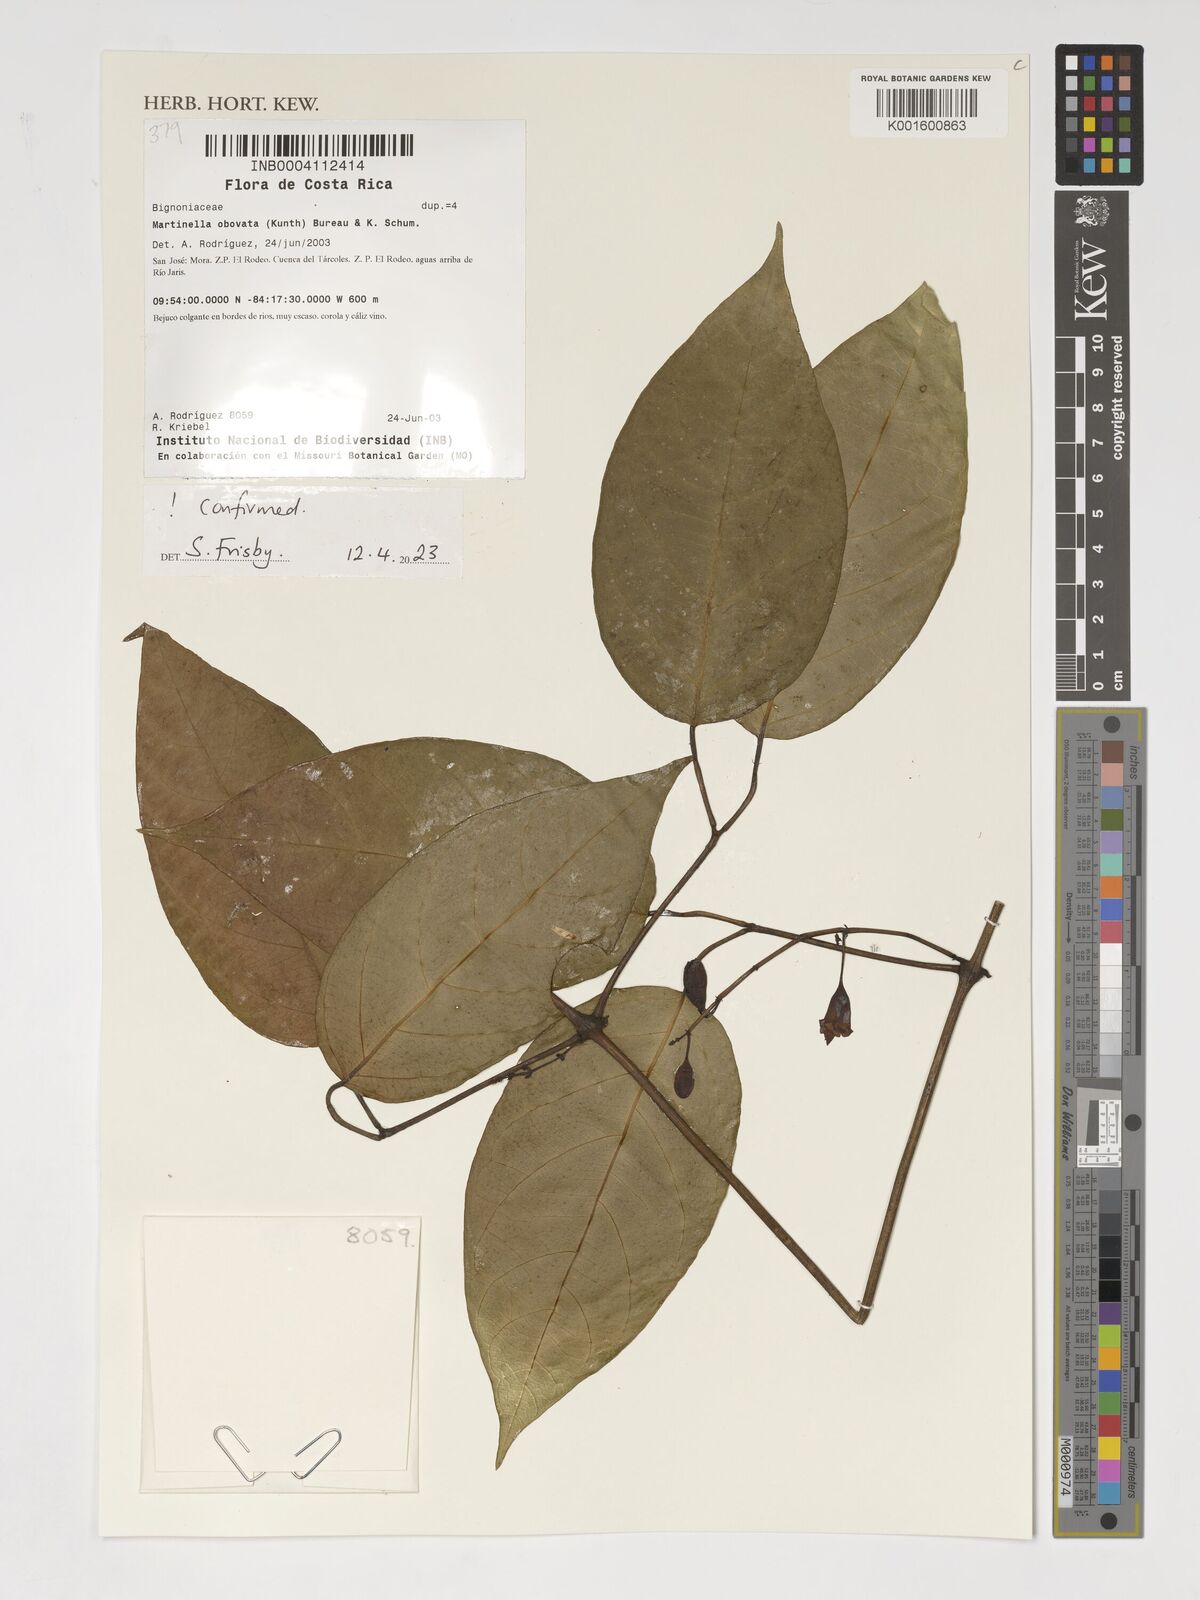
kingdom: Animalia
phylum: Arthropoda
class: Insecta
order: Coleoptera
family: Chrysomelidae
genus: Martinella
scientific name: Martinella obovata
